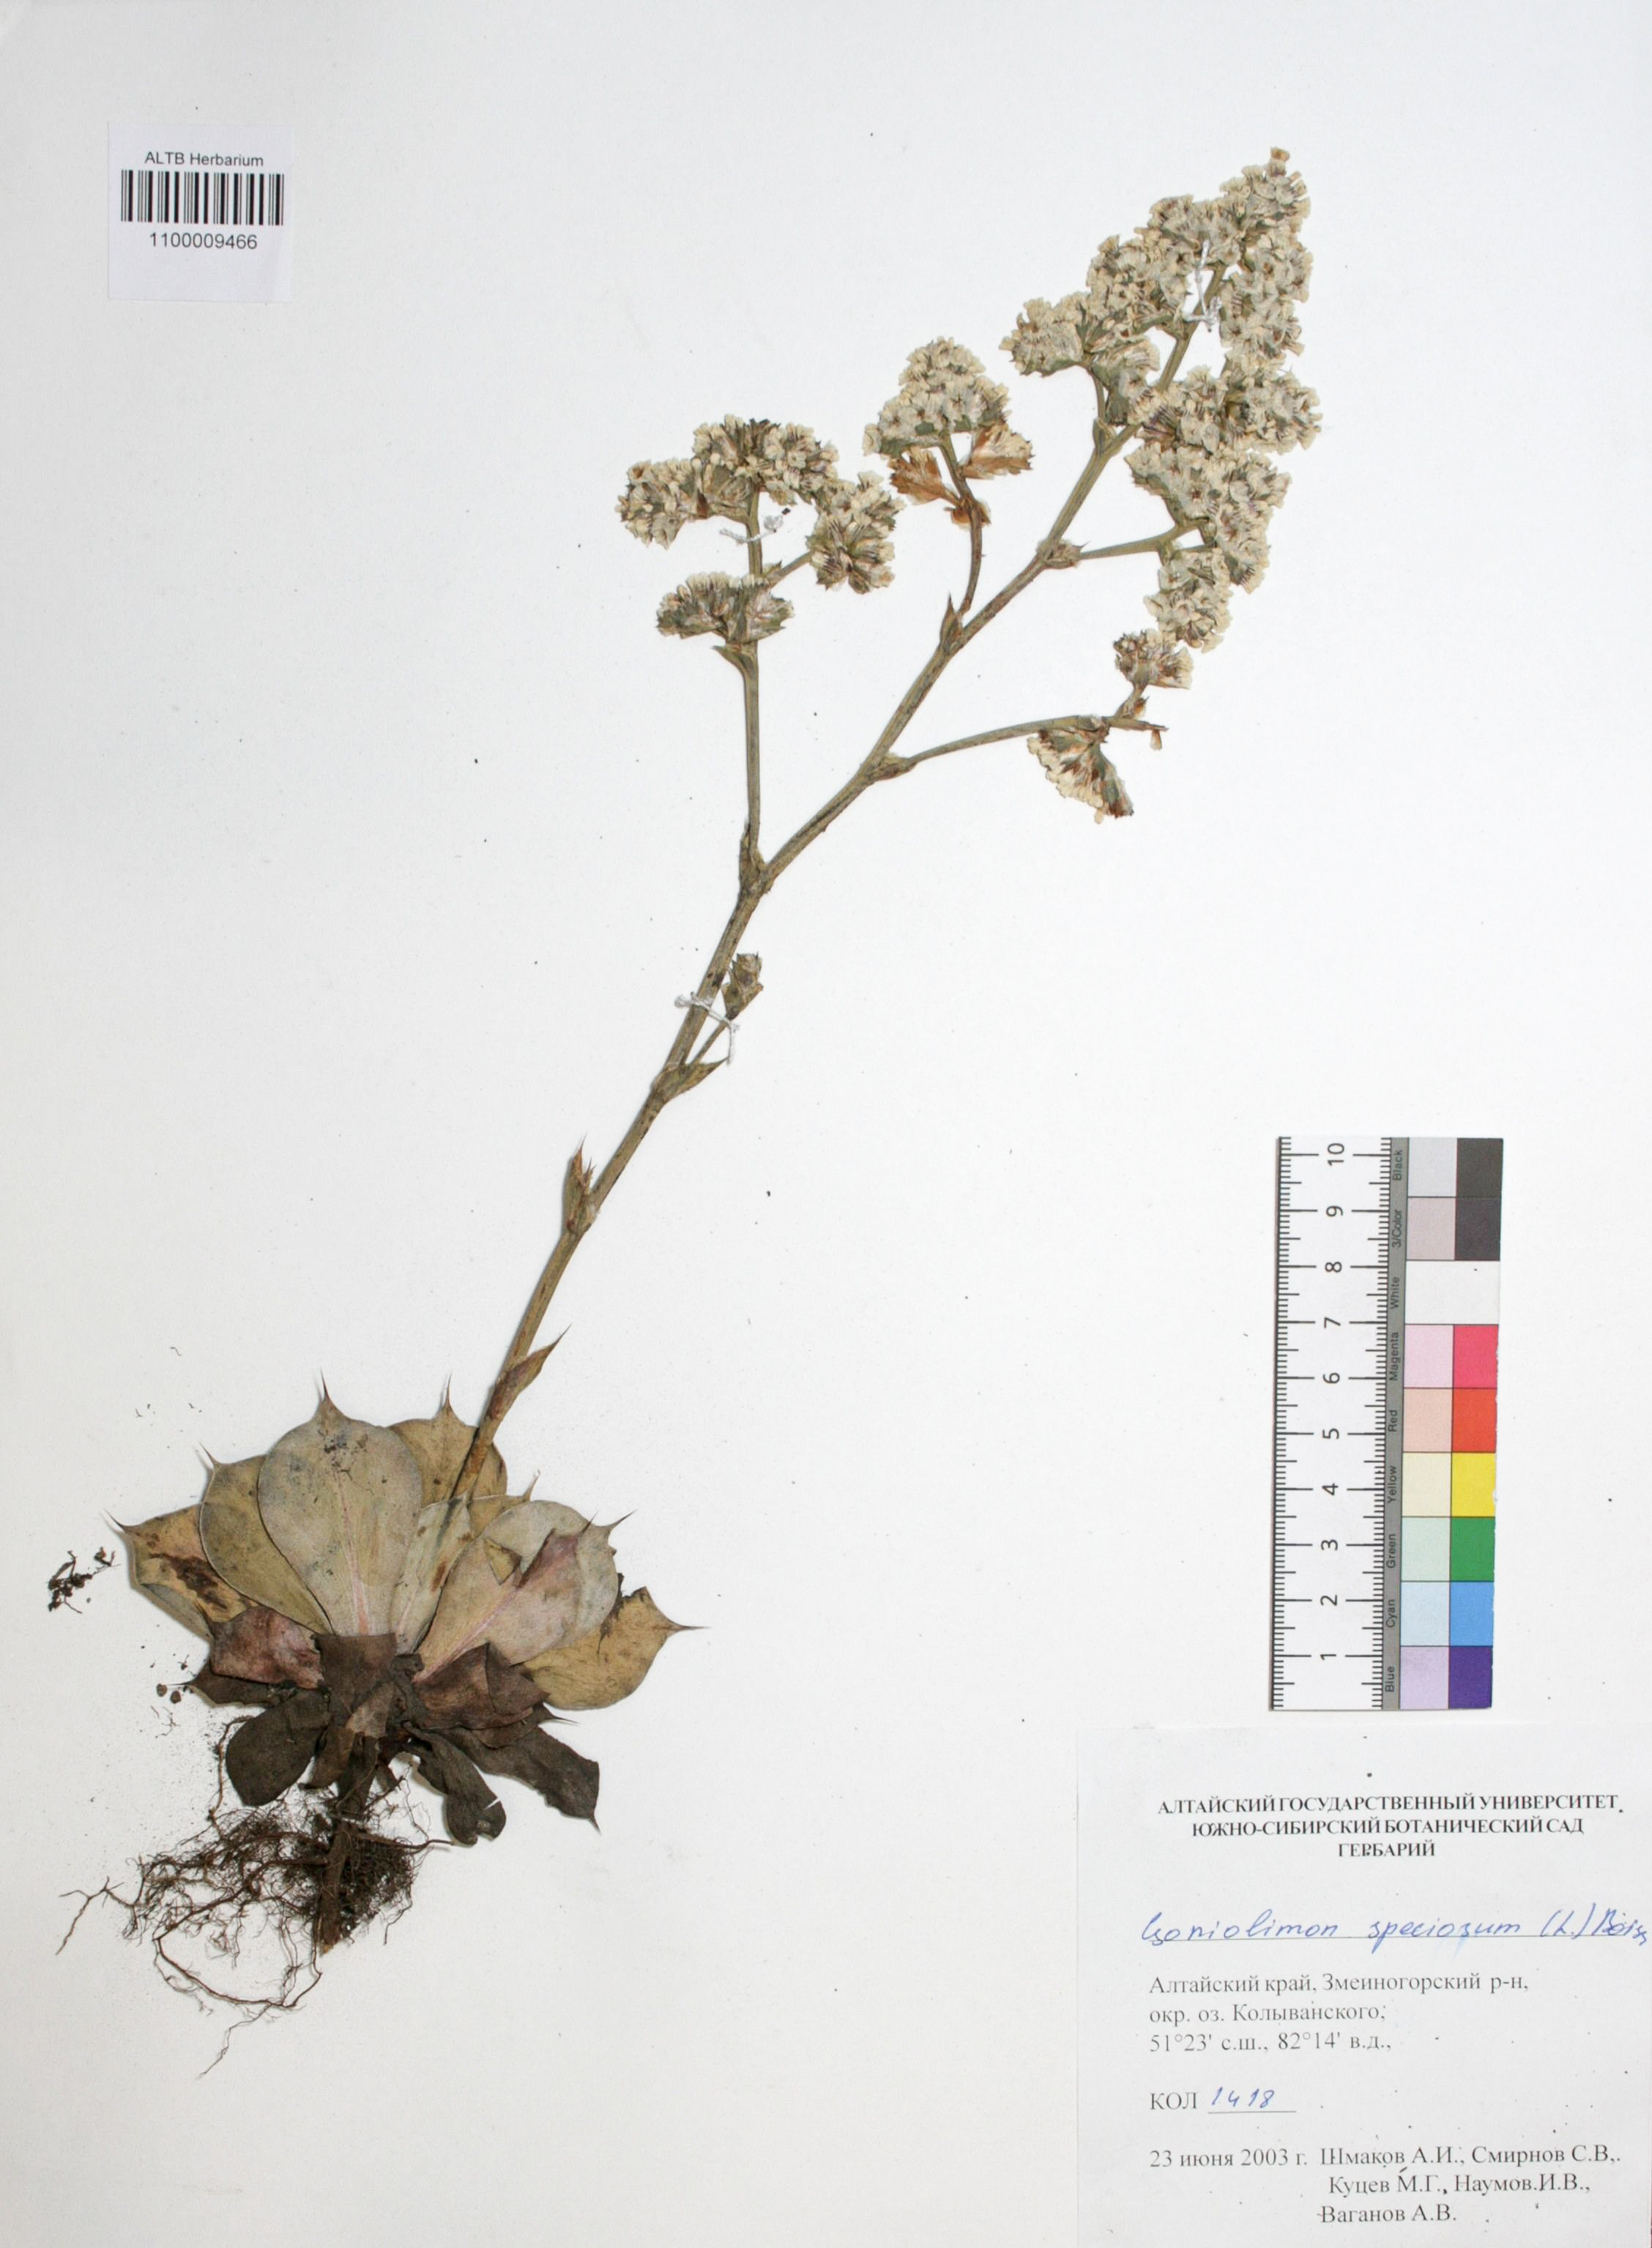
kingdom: Plantae
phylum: Tracheophyta
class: Magnoliopsida
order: Caryophyllales
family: Plumbaginaceae
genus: Goniolimon
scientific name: Goniolimon speciosum
